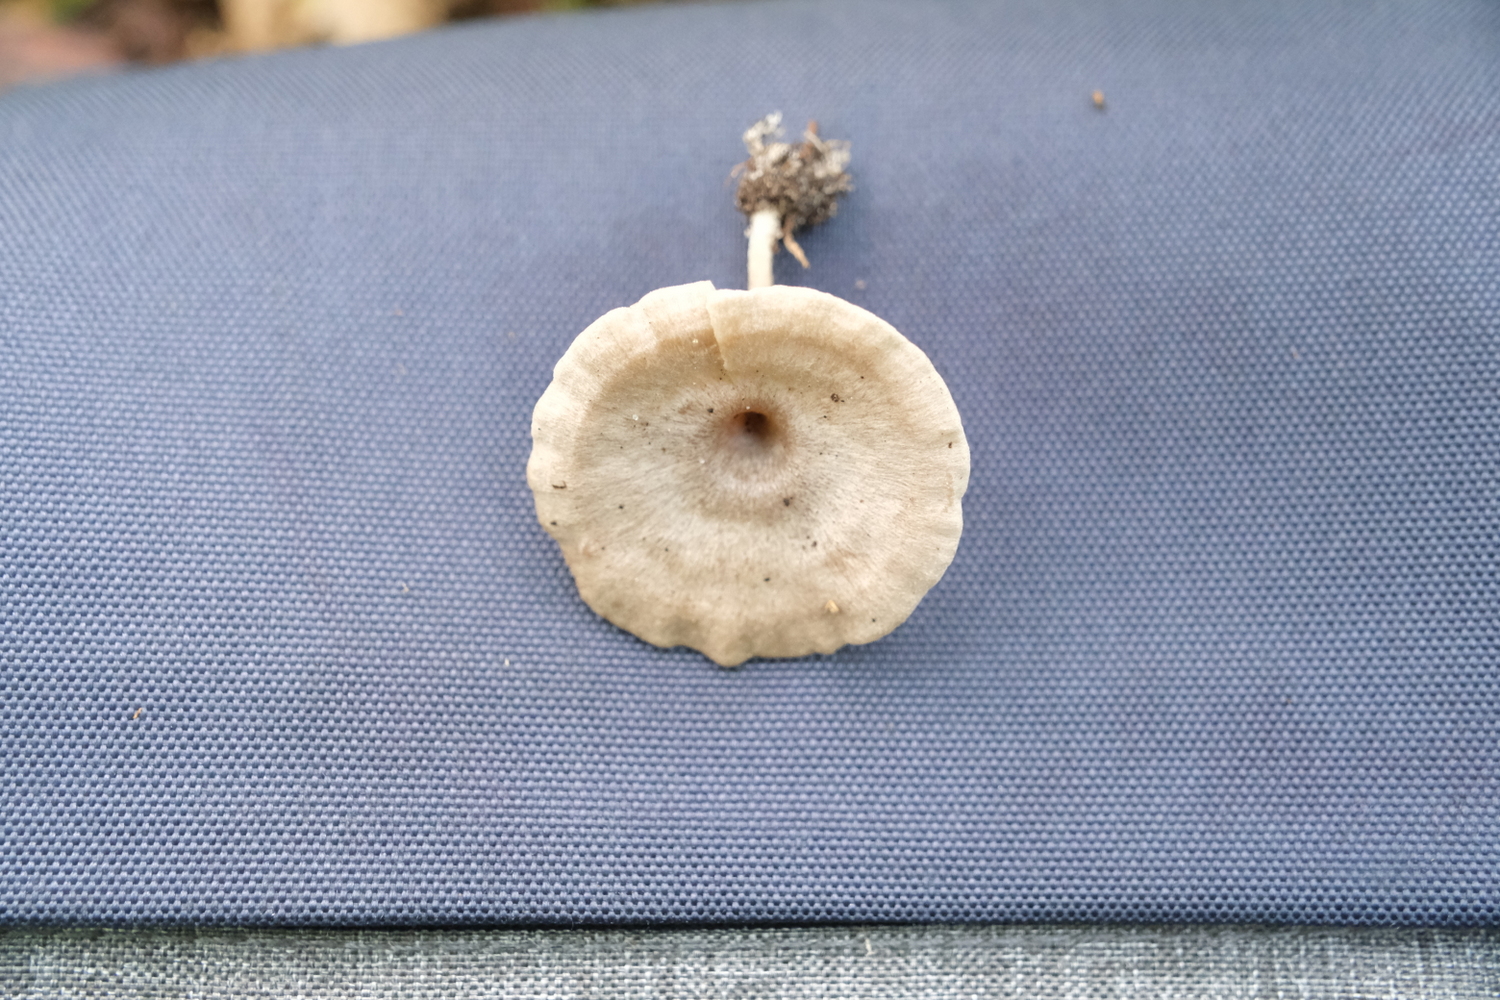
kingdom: Fungi
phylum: Basidiomycota
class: Agaricomycetes
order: Agaricales
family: Entolomataceae
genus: Entoloma
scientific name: Entoloma undatum
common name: bæltet rødblad
